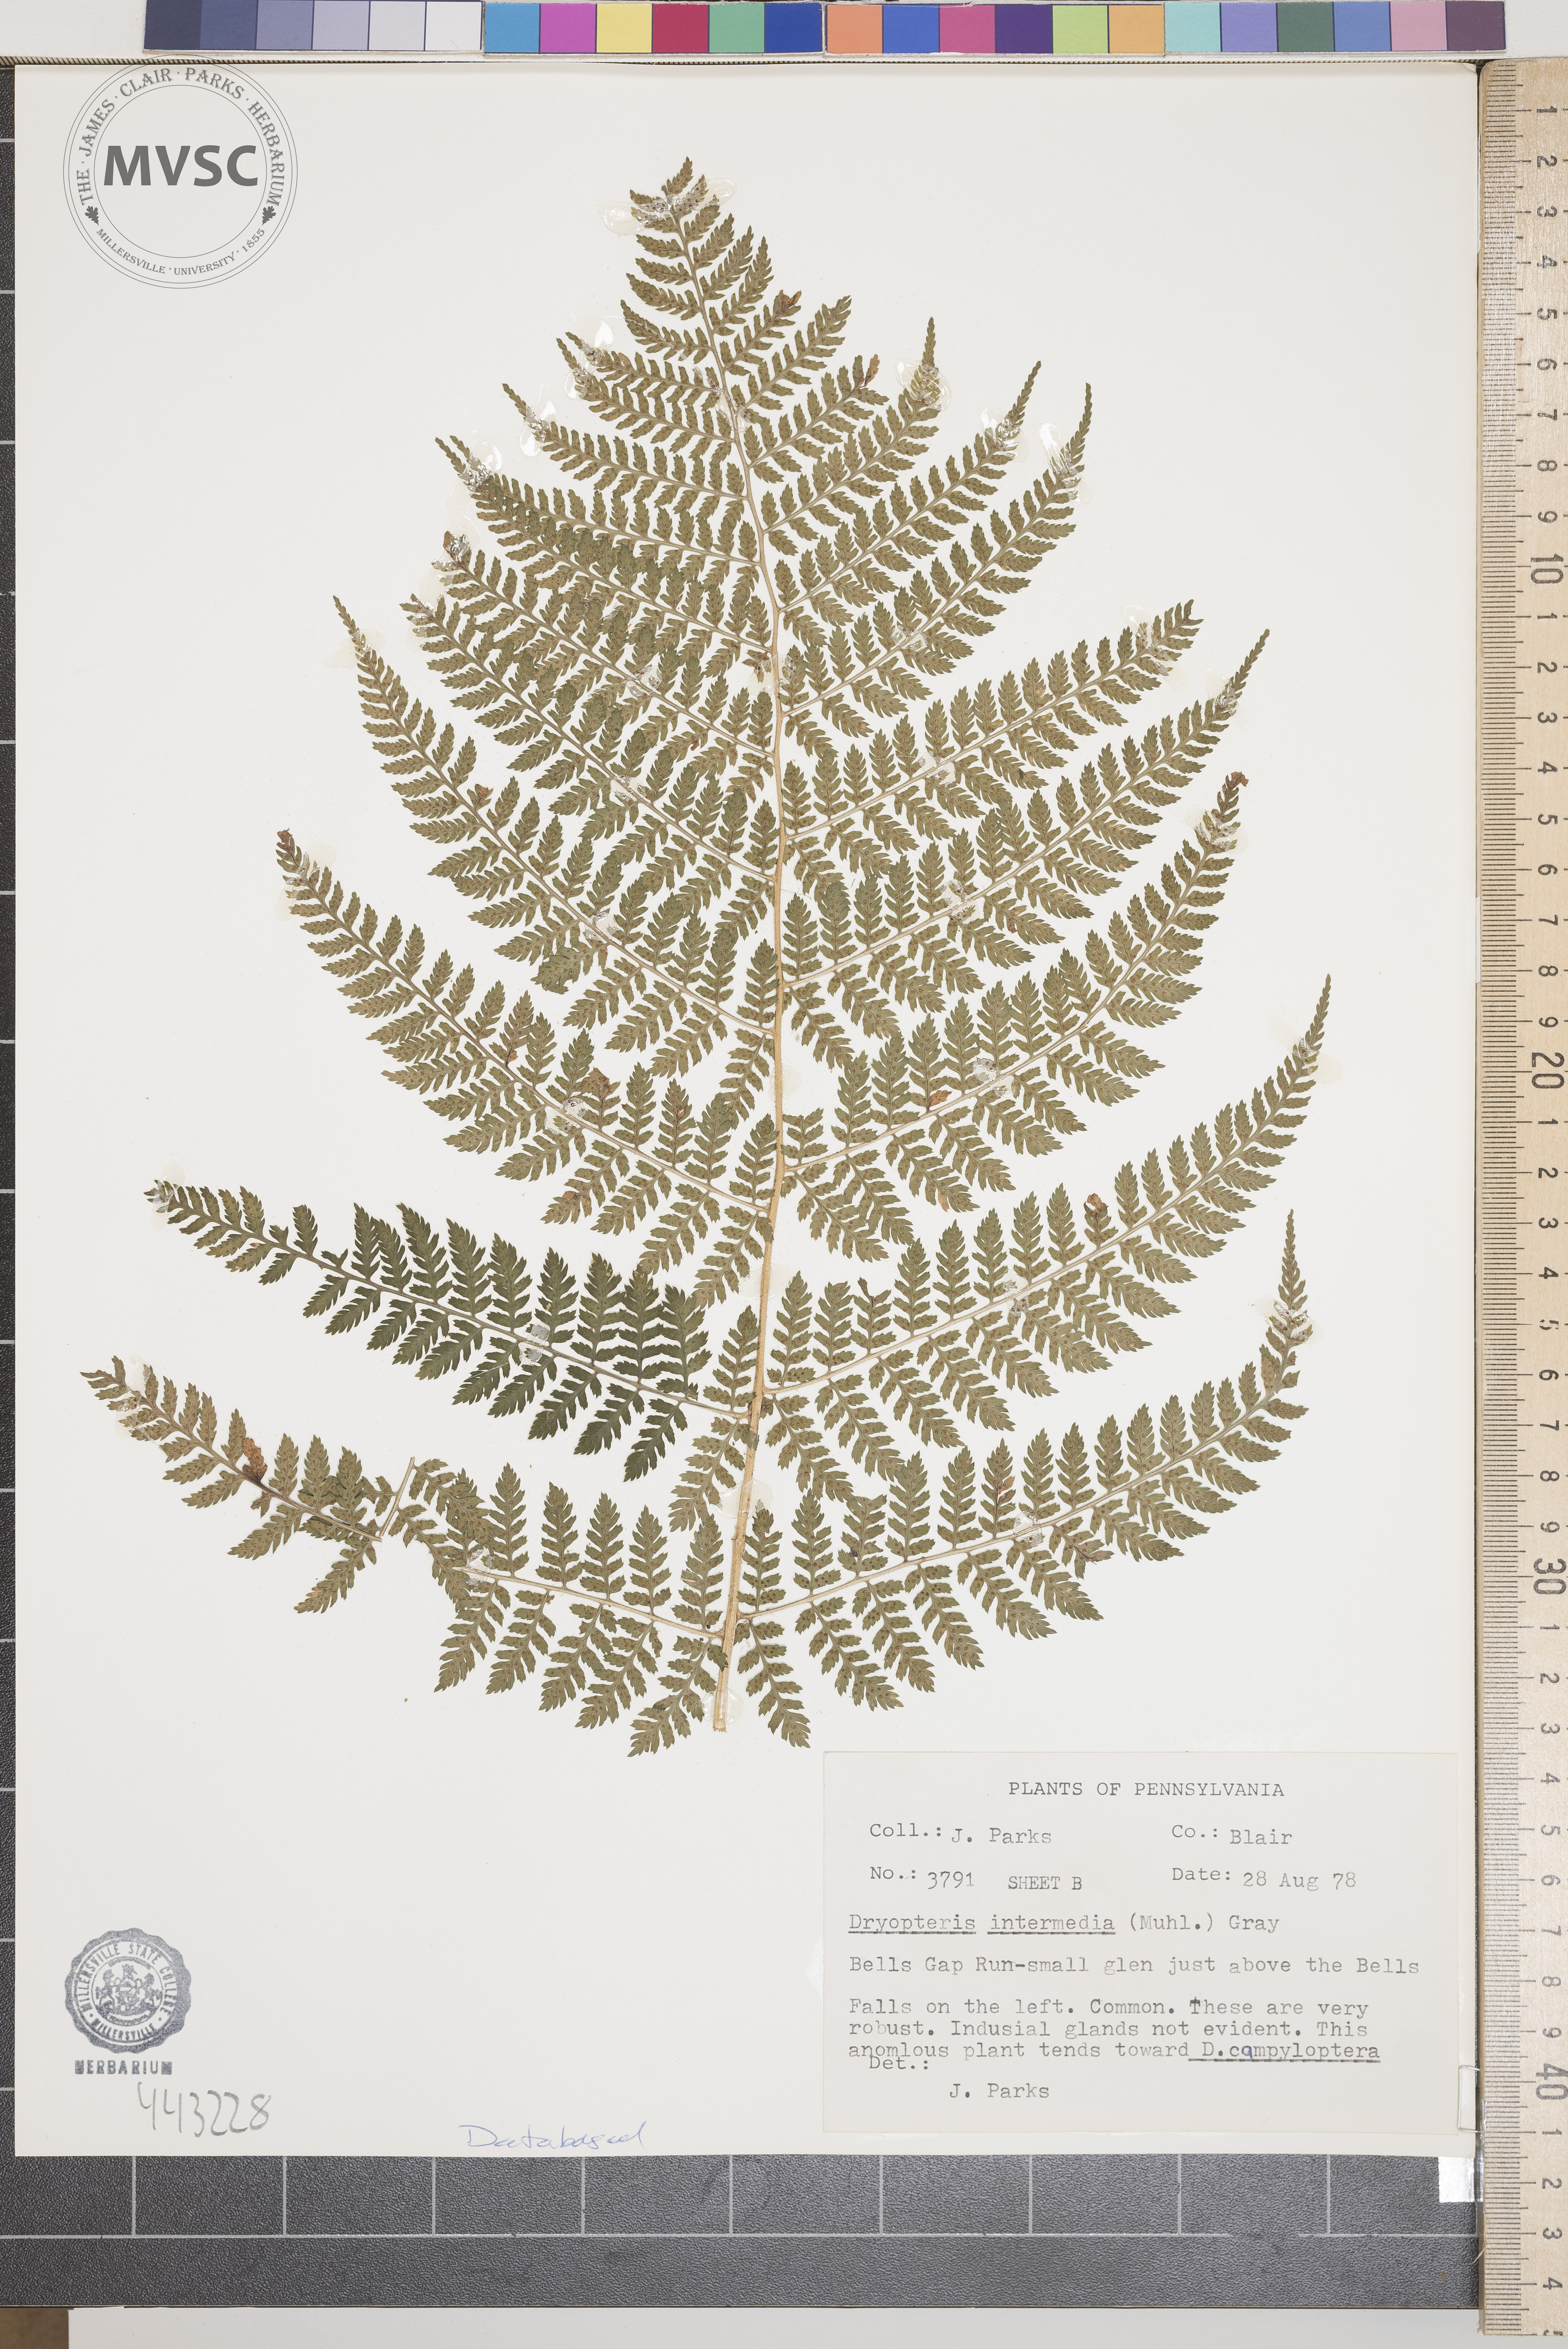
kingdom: Plantae
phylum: Tracheophyta
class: Polypodiopsida
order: Polypodiales
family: Dryopteridaceae
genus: Dryopteris
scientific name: Dryopteris intermedia
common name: Evergreen wood fern
